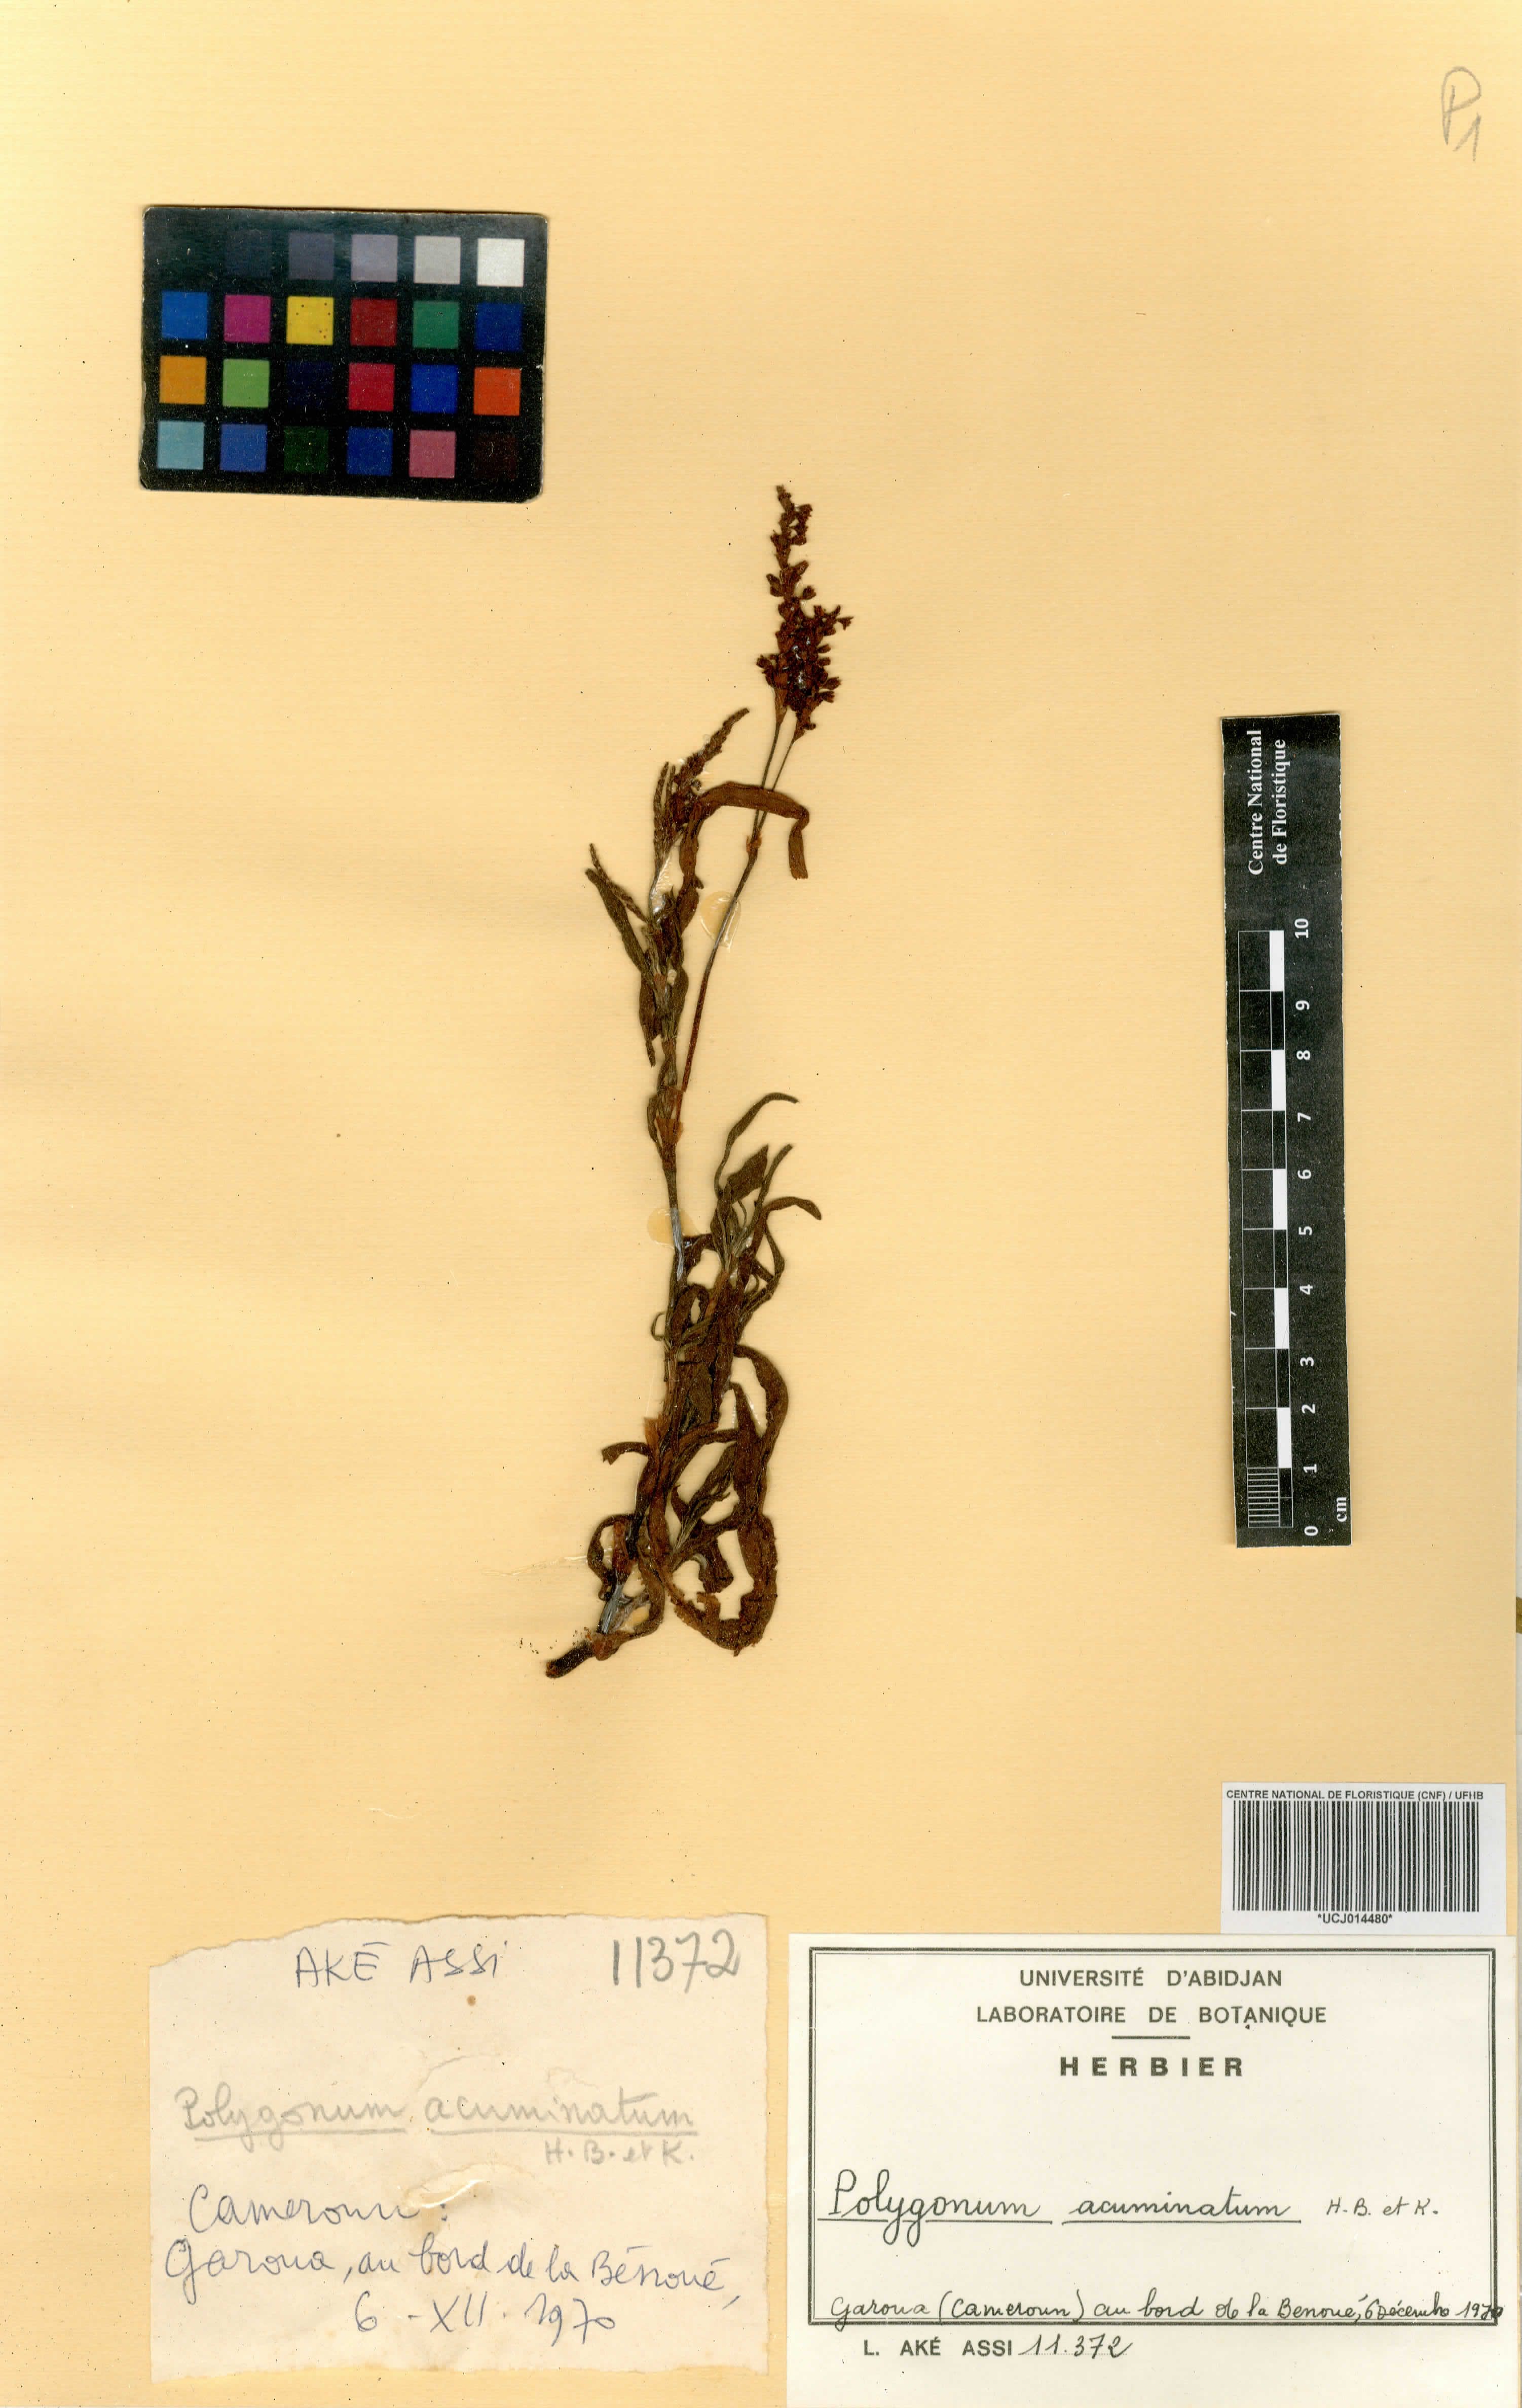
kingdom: Plantae
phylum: Tracheophyta
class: Magnoliopsida
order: Caryophyllales
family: Polygonaceae
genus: Persicaria
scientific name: Persicaria acuminata
